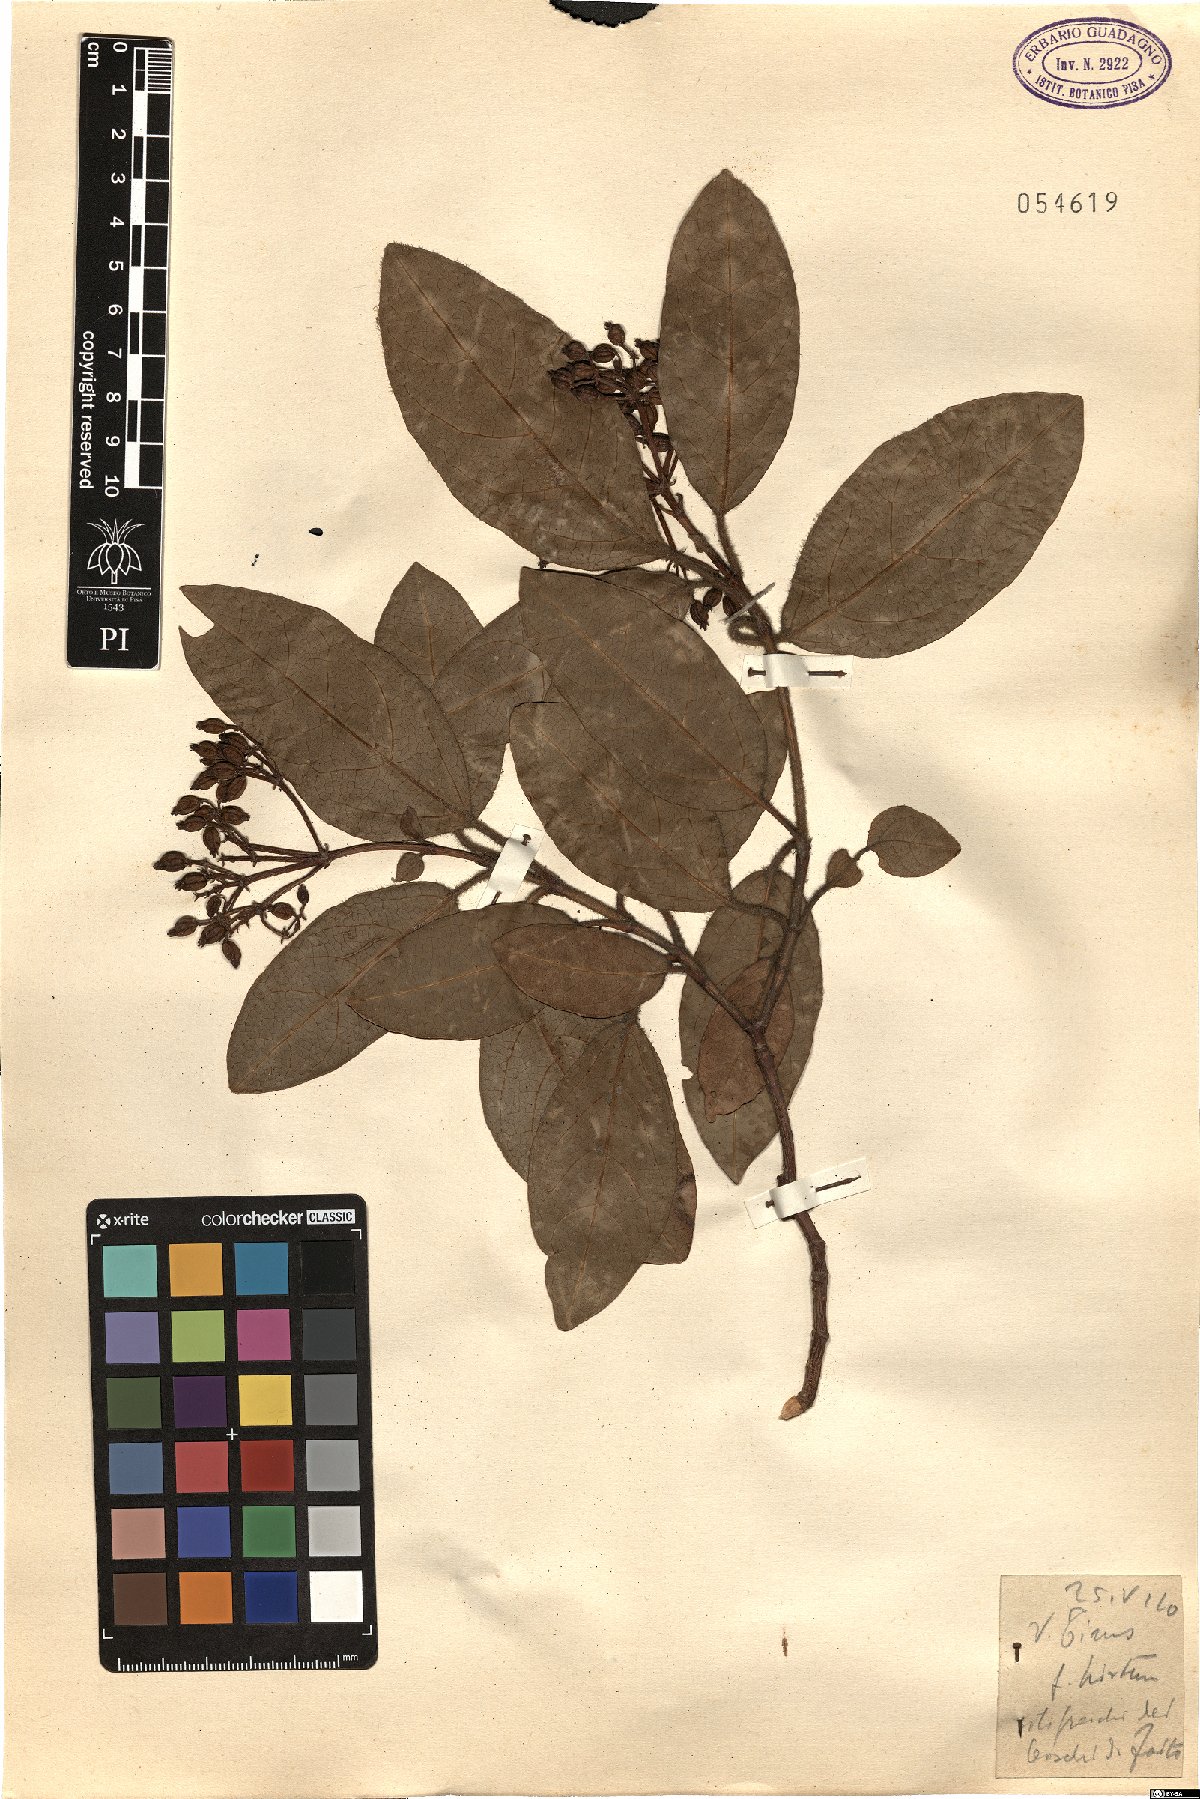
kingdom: Plantae
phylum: Tracheophyta
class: Magnoliopsida
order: Dipsacales
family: Viburnaceae
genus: Viburnum
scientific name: Viburnum tinus
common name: Laurustinus
